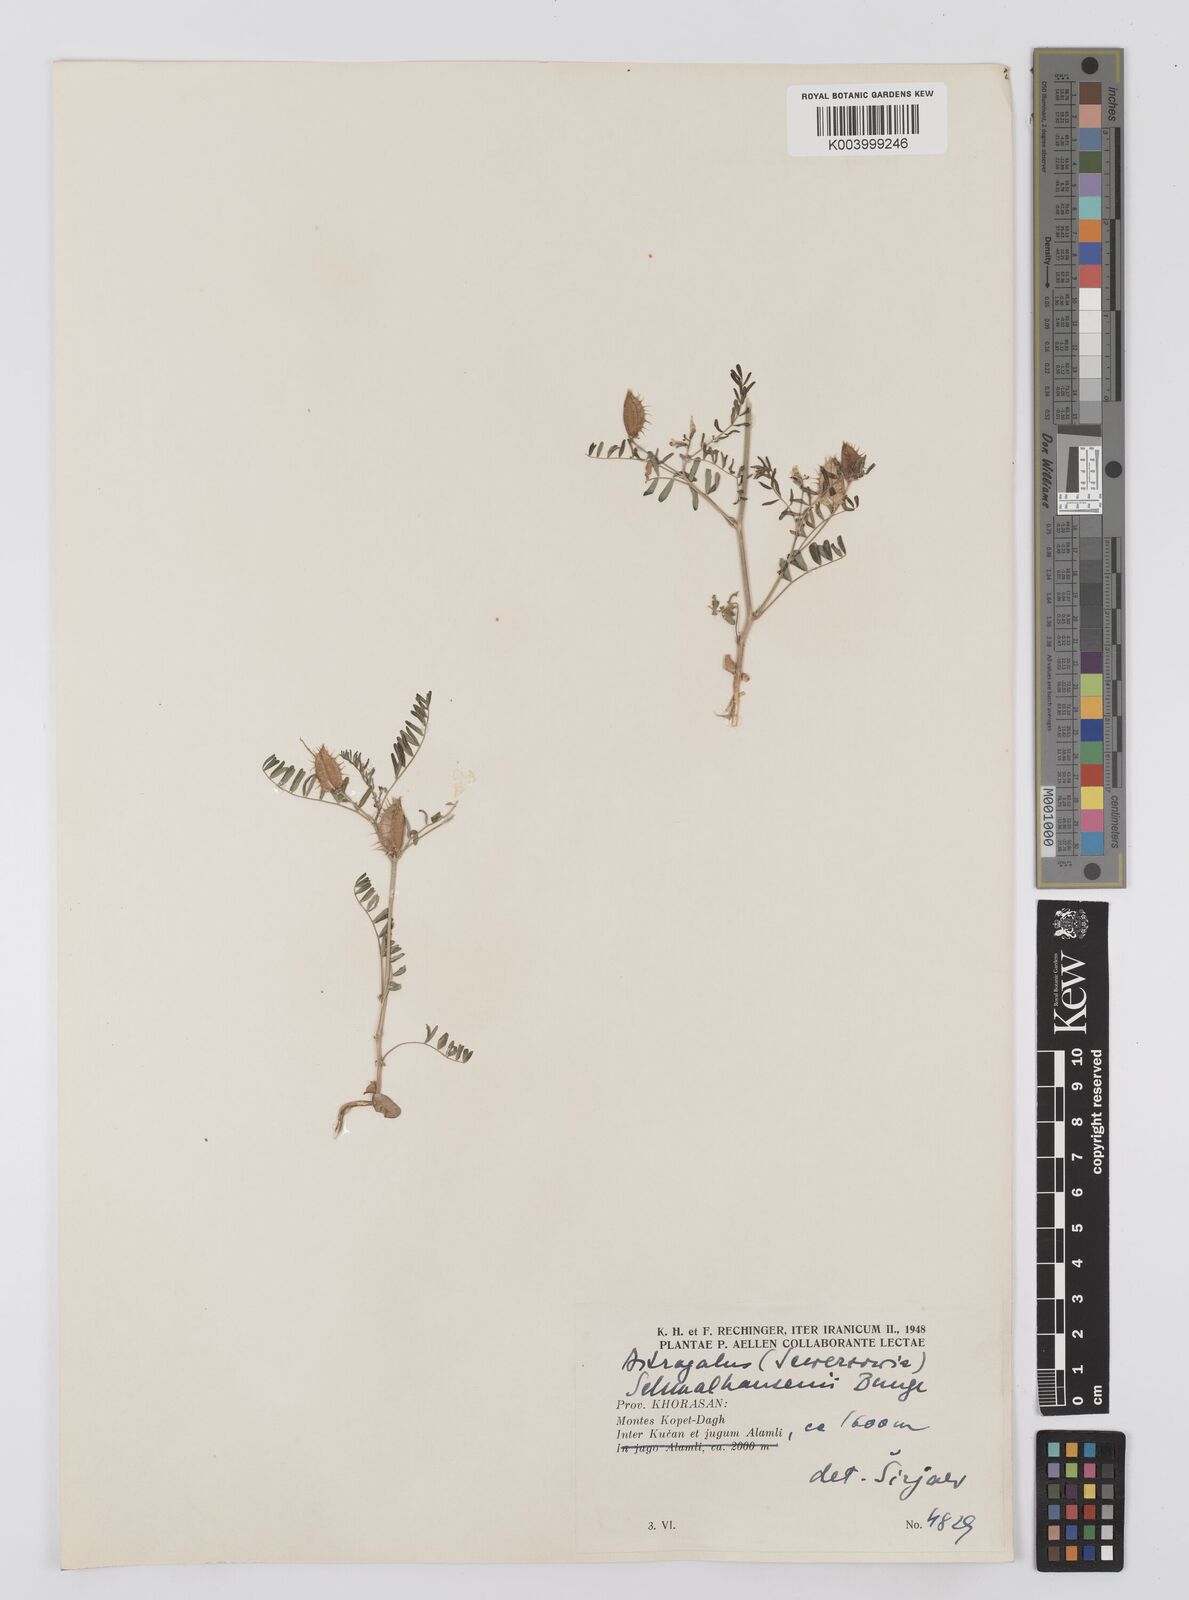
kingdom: Plantae
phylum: Tracheophyta
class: Magnoliopsida
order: Fabales
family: Fabaceae
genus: Astragalus
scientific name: Astragalus schmalhausenii
